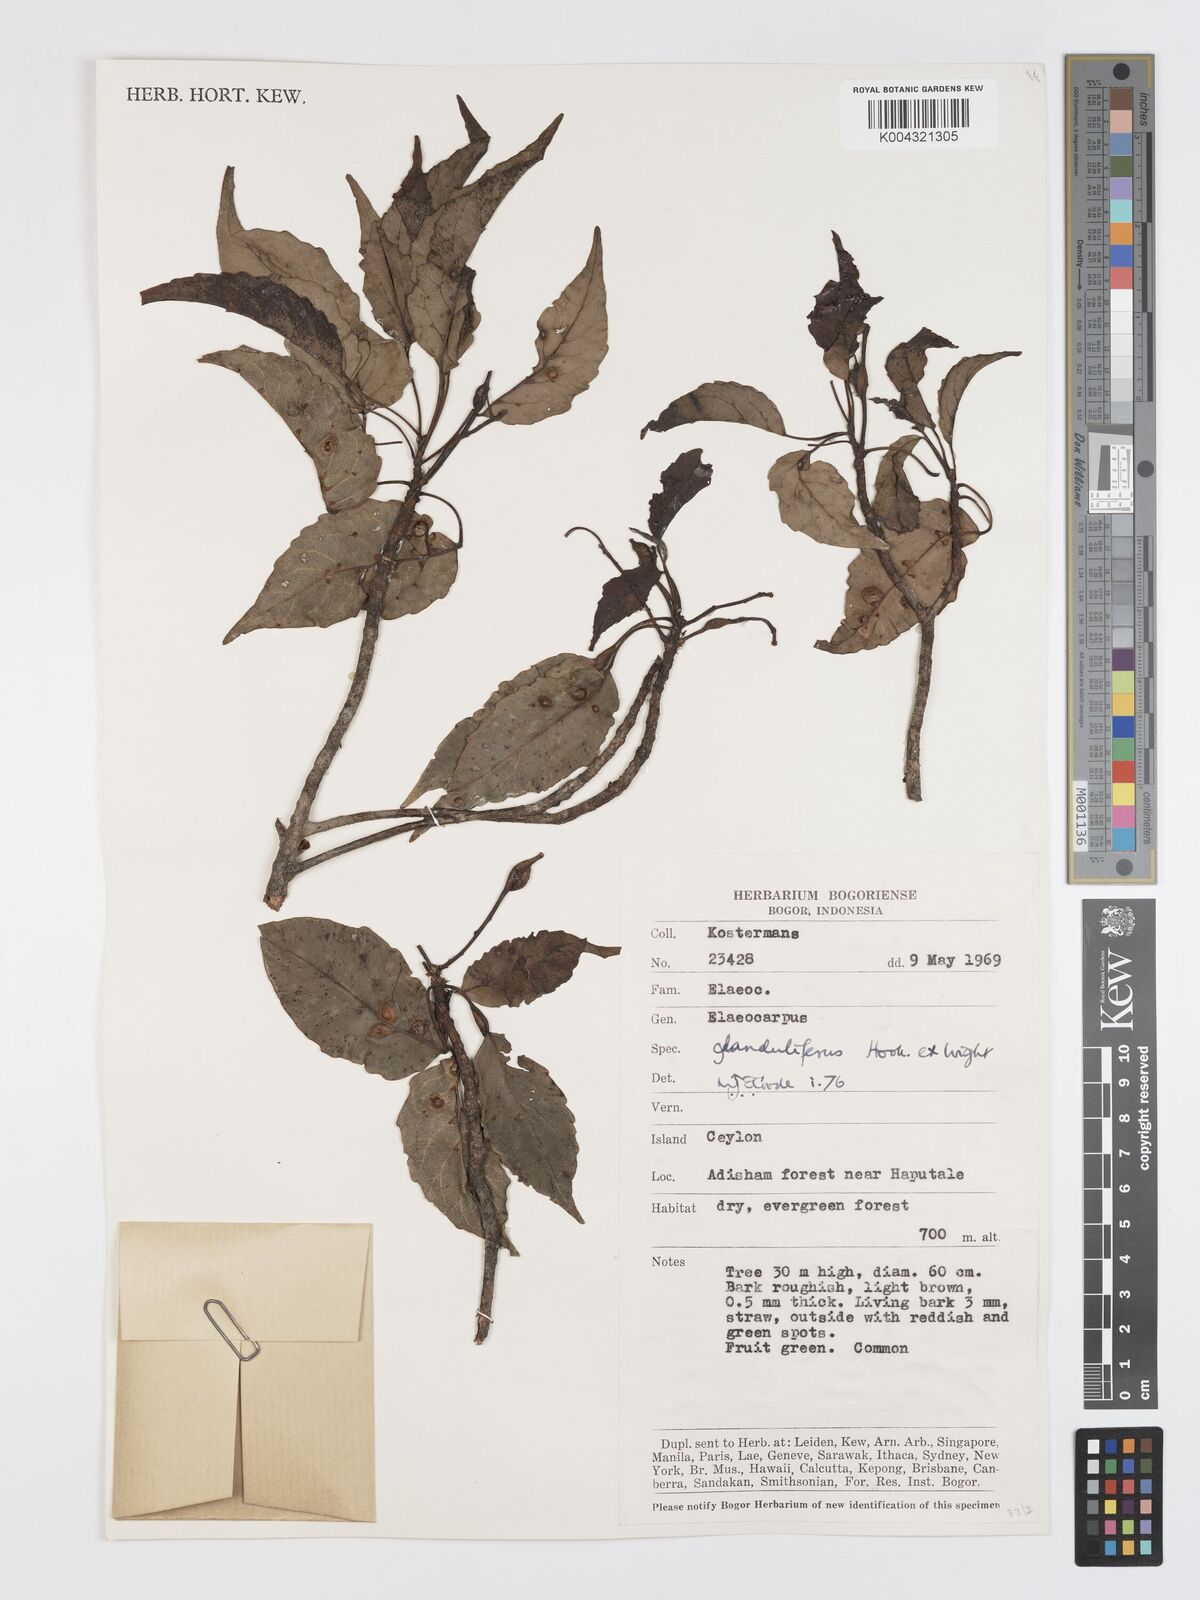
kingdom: Plantae
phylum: Tracheophyta
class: Magnoliopsida
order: Oxalidales
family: Elaeocarpaceae
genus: Elaeocarpus
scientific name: Elaeocarpus glandulifer
